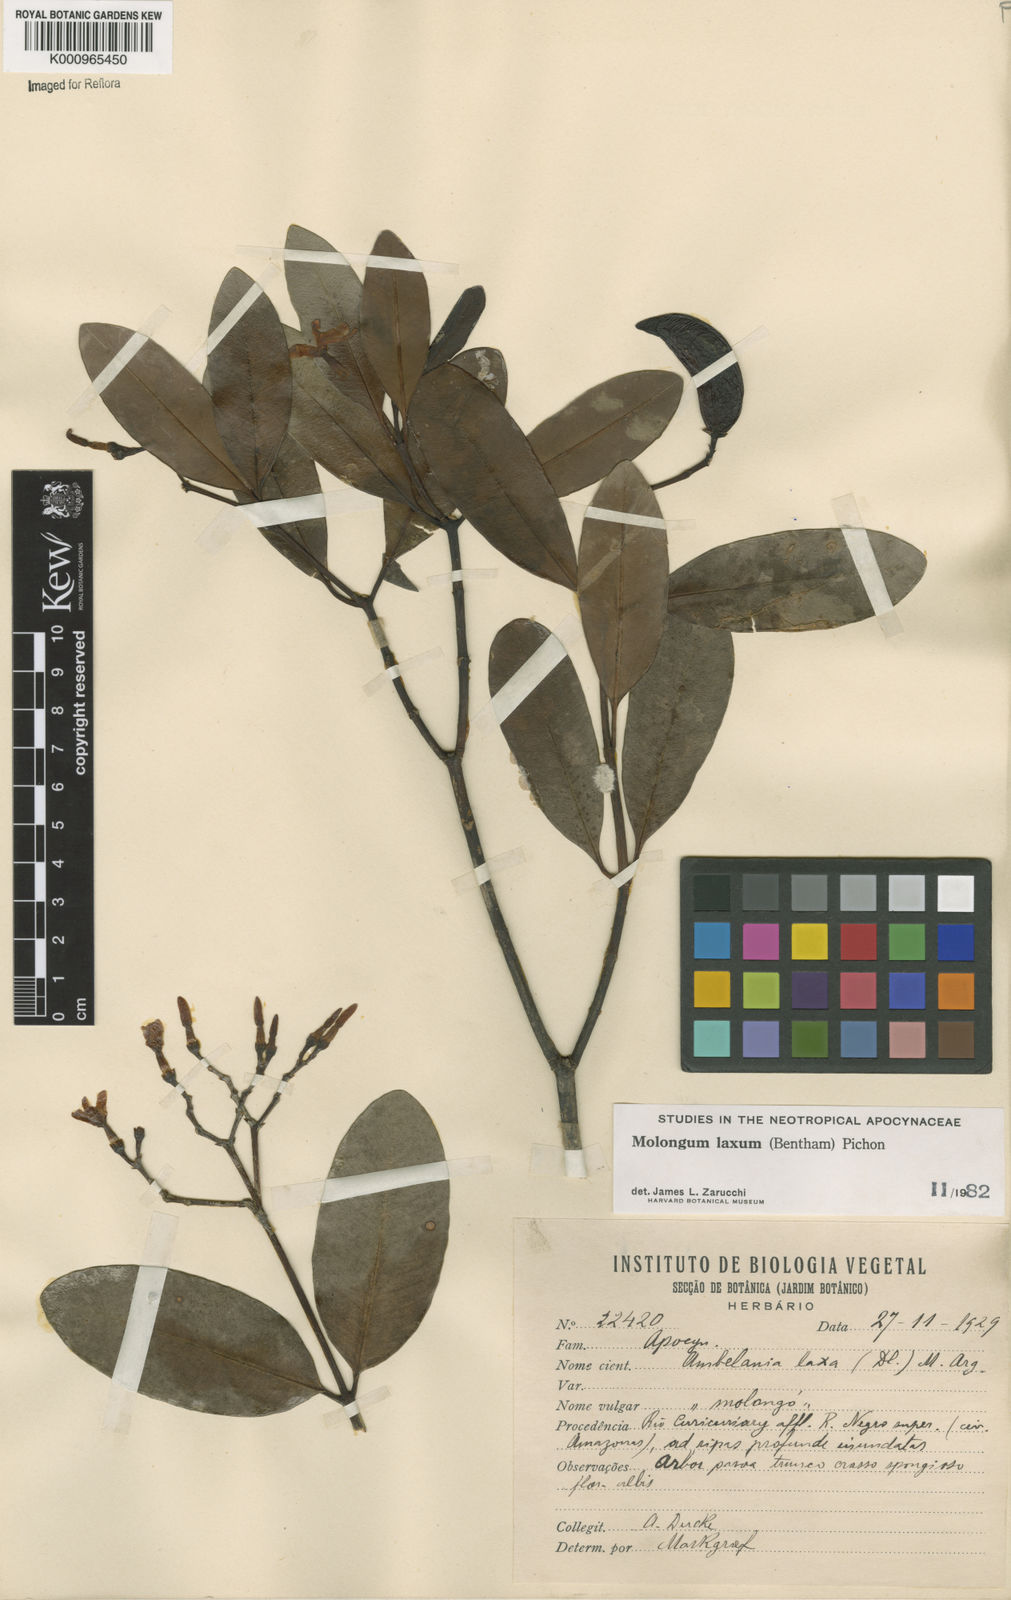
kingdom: Plantae
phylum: Tracheophyta
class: Magnoliopsida
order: Gentianales
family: Apocynaceae
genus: Molongum
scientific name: Molongum laxum
